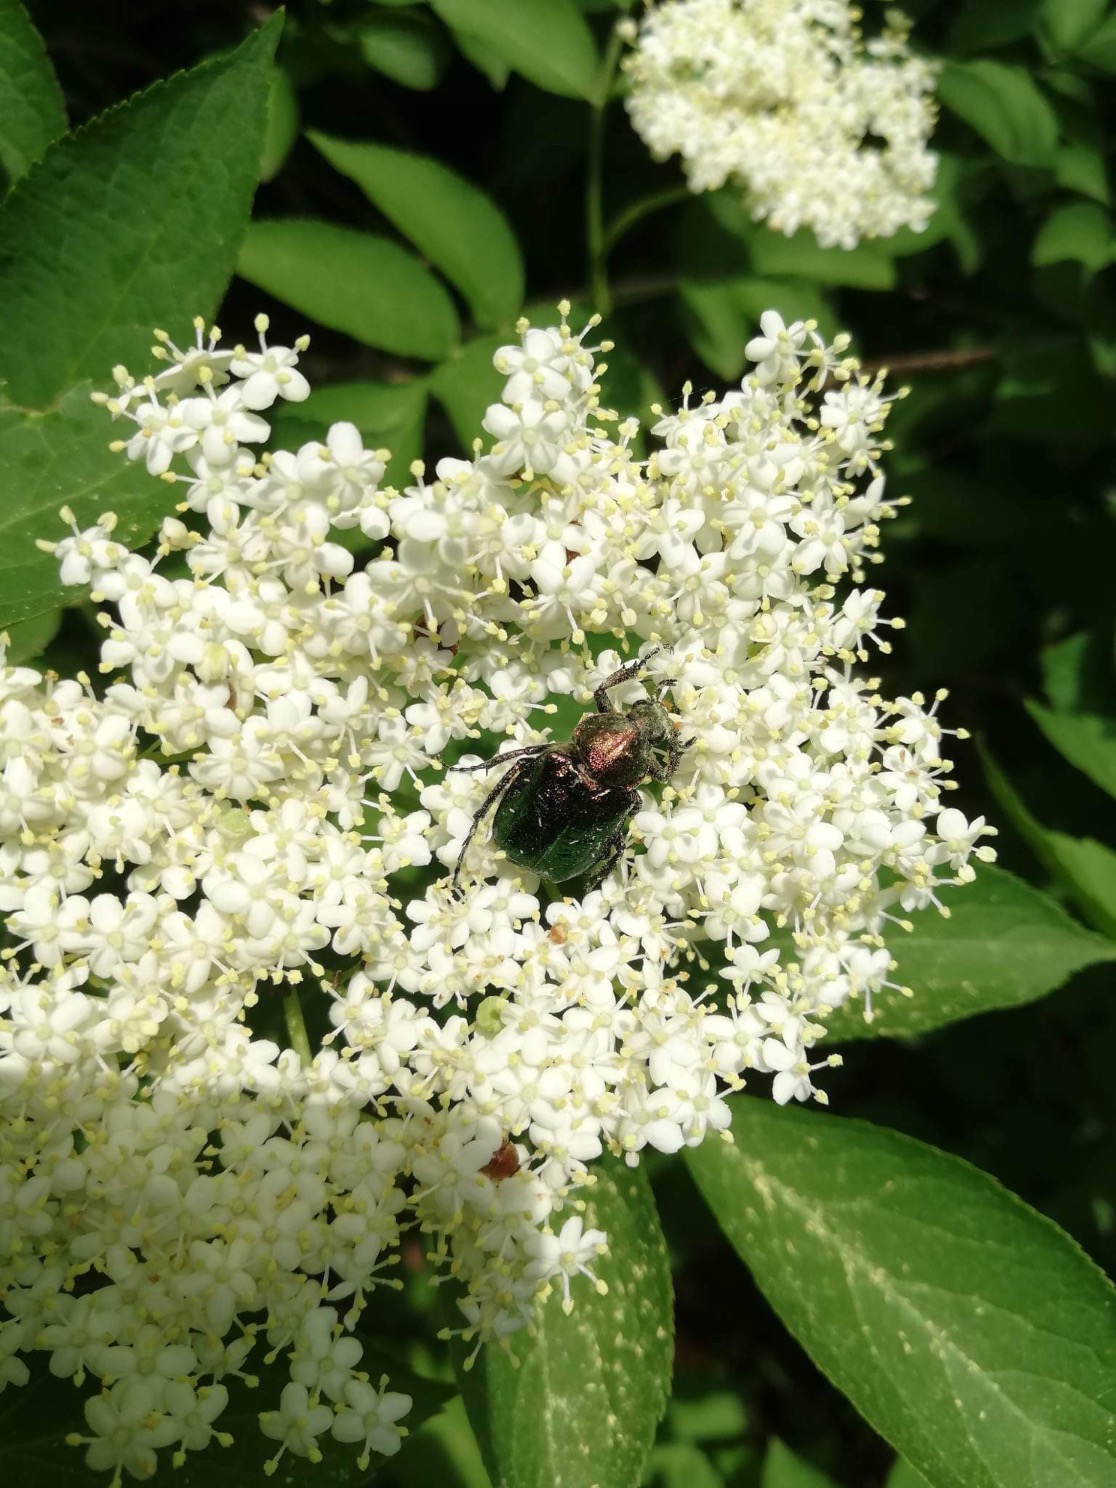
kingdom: Animalia
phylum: Arthropoda
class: Insecta
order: Coleoptera
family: Scarabaeidae
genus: Gnorimus
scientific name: Gnorimus nobilis
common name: Grøn pragttorbist
